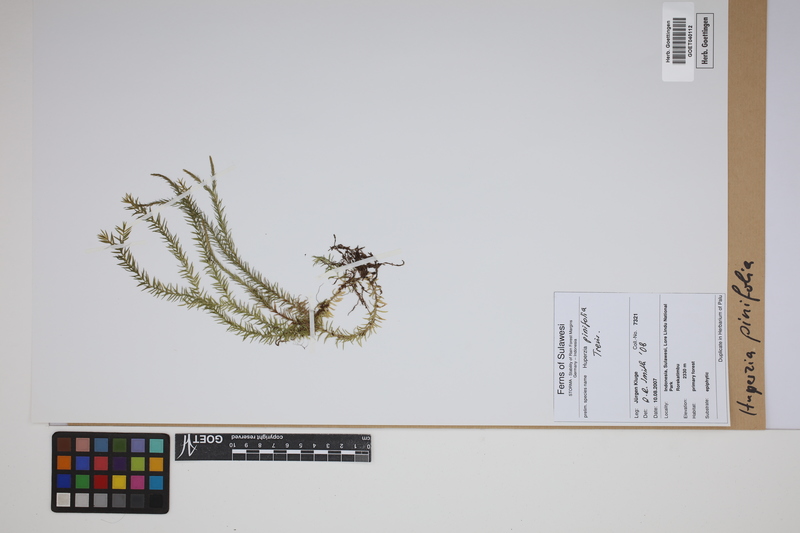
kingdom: Plantae
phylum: Tracheophyta
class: Lycopodiopsida
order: Lycopodiales
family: Lycopodiaceae
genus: Phlegmariurus
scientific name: Phlegmariurus pinifolius
